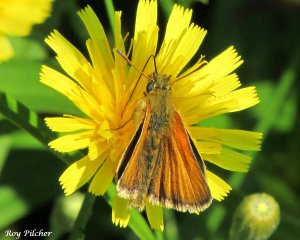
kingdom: Animalia
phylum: Arthropoda
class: Insecta
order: Lepidoptera
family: Hesperiidae
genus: Thymelicus
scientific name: Thymelicus lineola
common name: European Skipper
